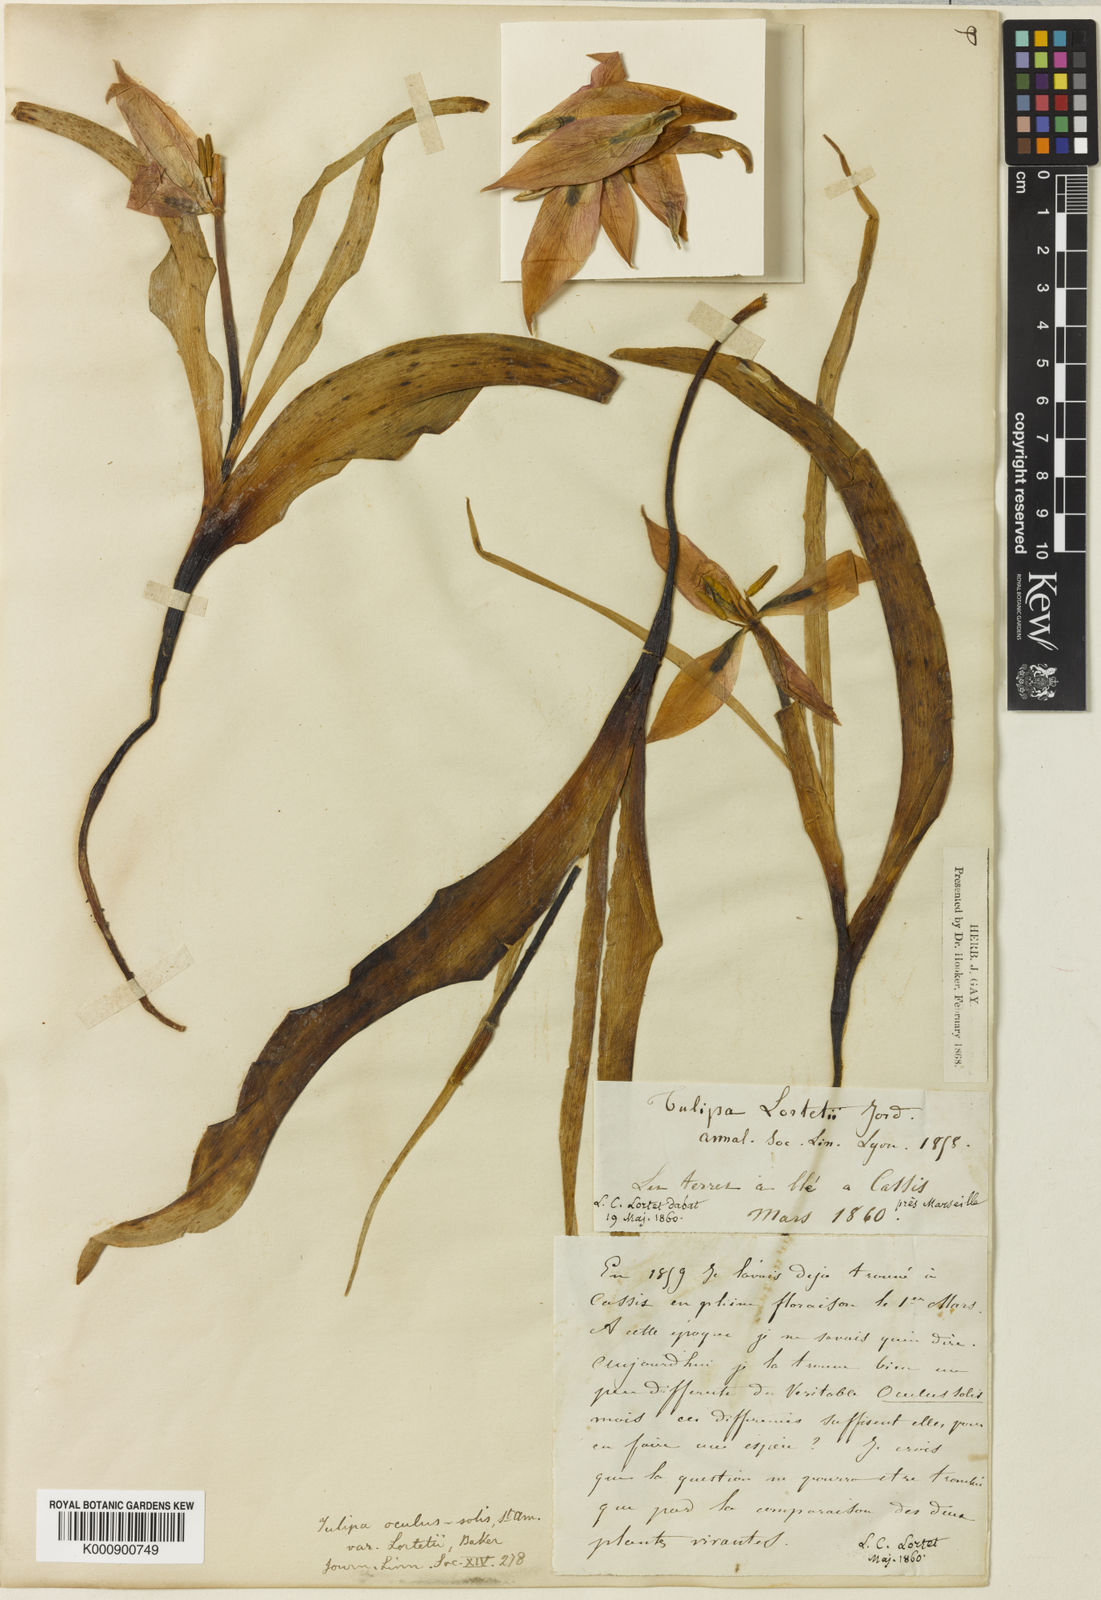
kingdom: Plantae
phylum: Tracheophyta
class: Liliopsida
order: Liliales
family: Liliaceae
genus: Tulipa
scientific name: Tulipa agenensis
